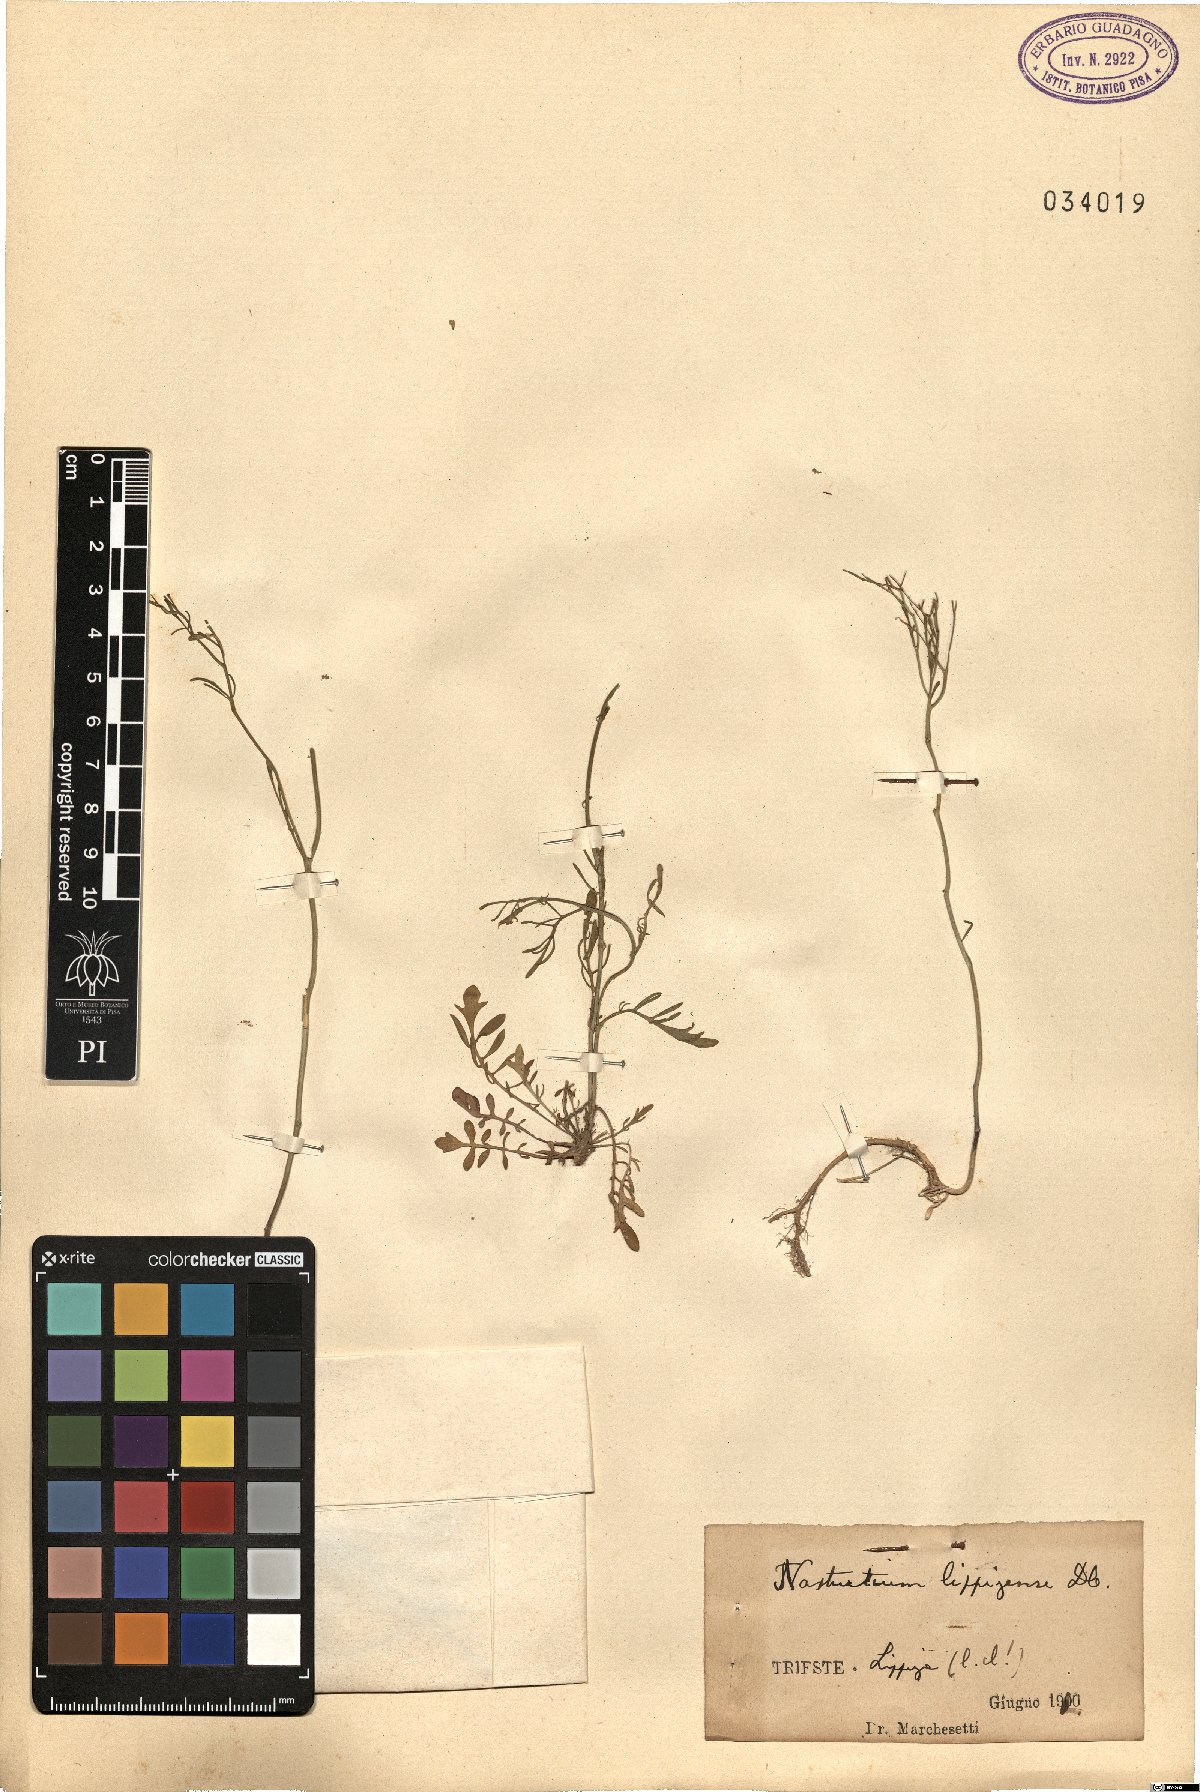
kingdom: Plantae
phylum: Tracheophyta
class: Magnoliopsida
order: Brassicales
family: Brassicaceae
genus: Rorippa
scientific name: Rorippa lippizensis
